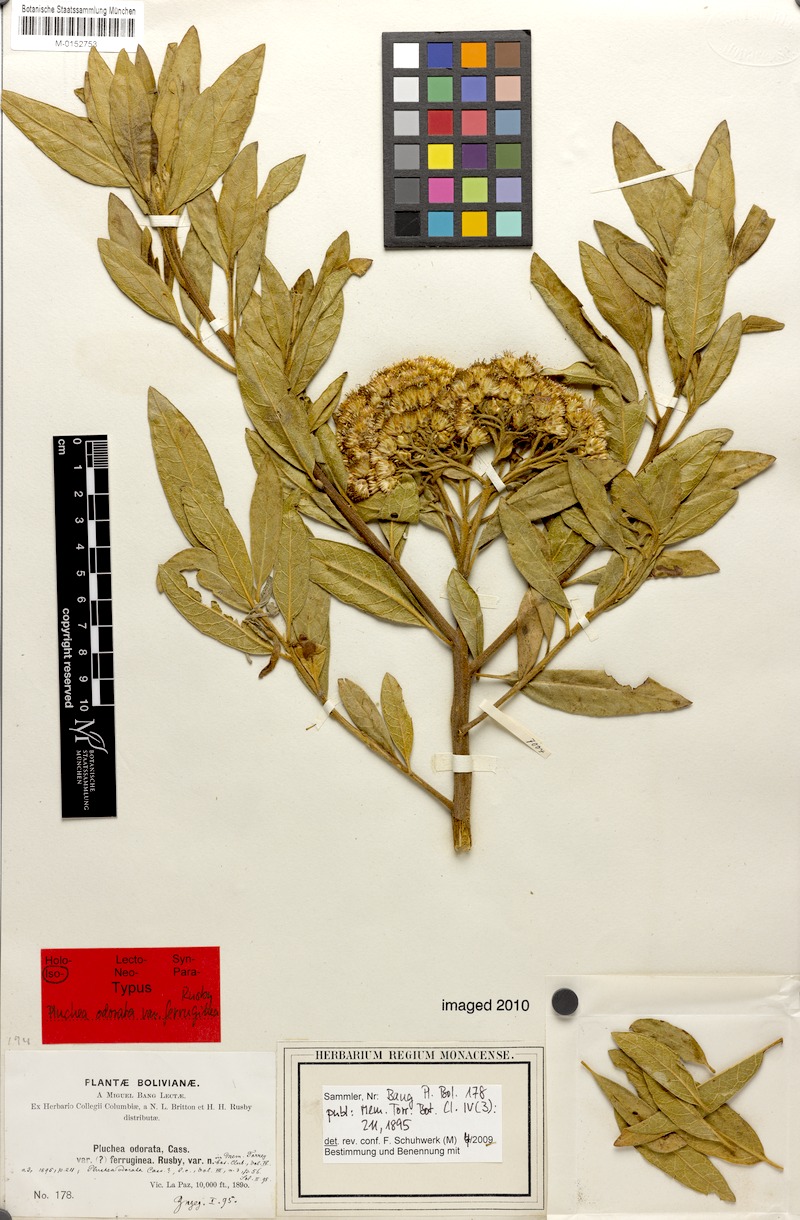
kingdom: Plantae
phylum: Tracheophyta
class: Magnoliopsida
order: Asterales
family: Asteraceae
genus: Tessaria
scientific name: Tessaria fastigiata
